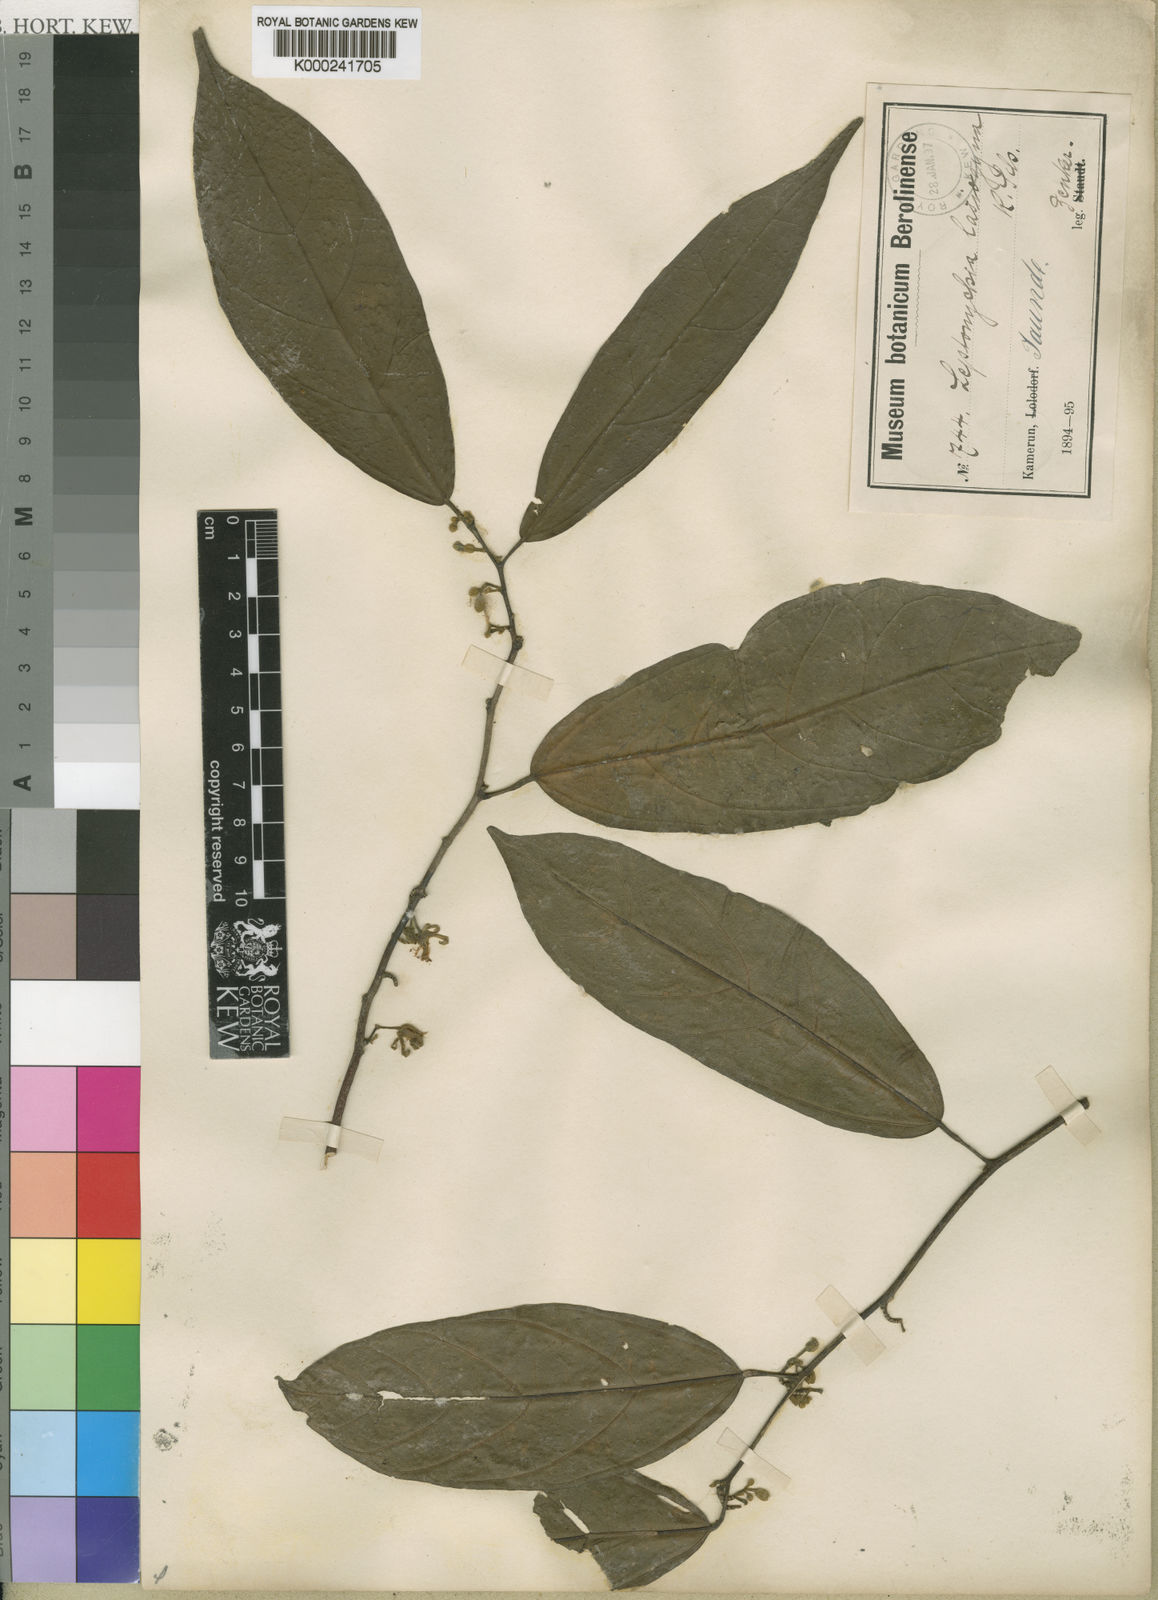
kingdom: Plantae
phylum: Tracheophyta
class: Magnoliopsida
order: Malvales
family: Malvaceae
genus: Leptonychia
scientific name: Leptonychia lasiogyne
